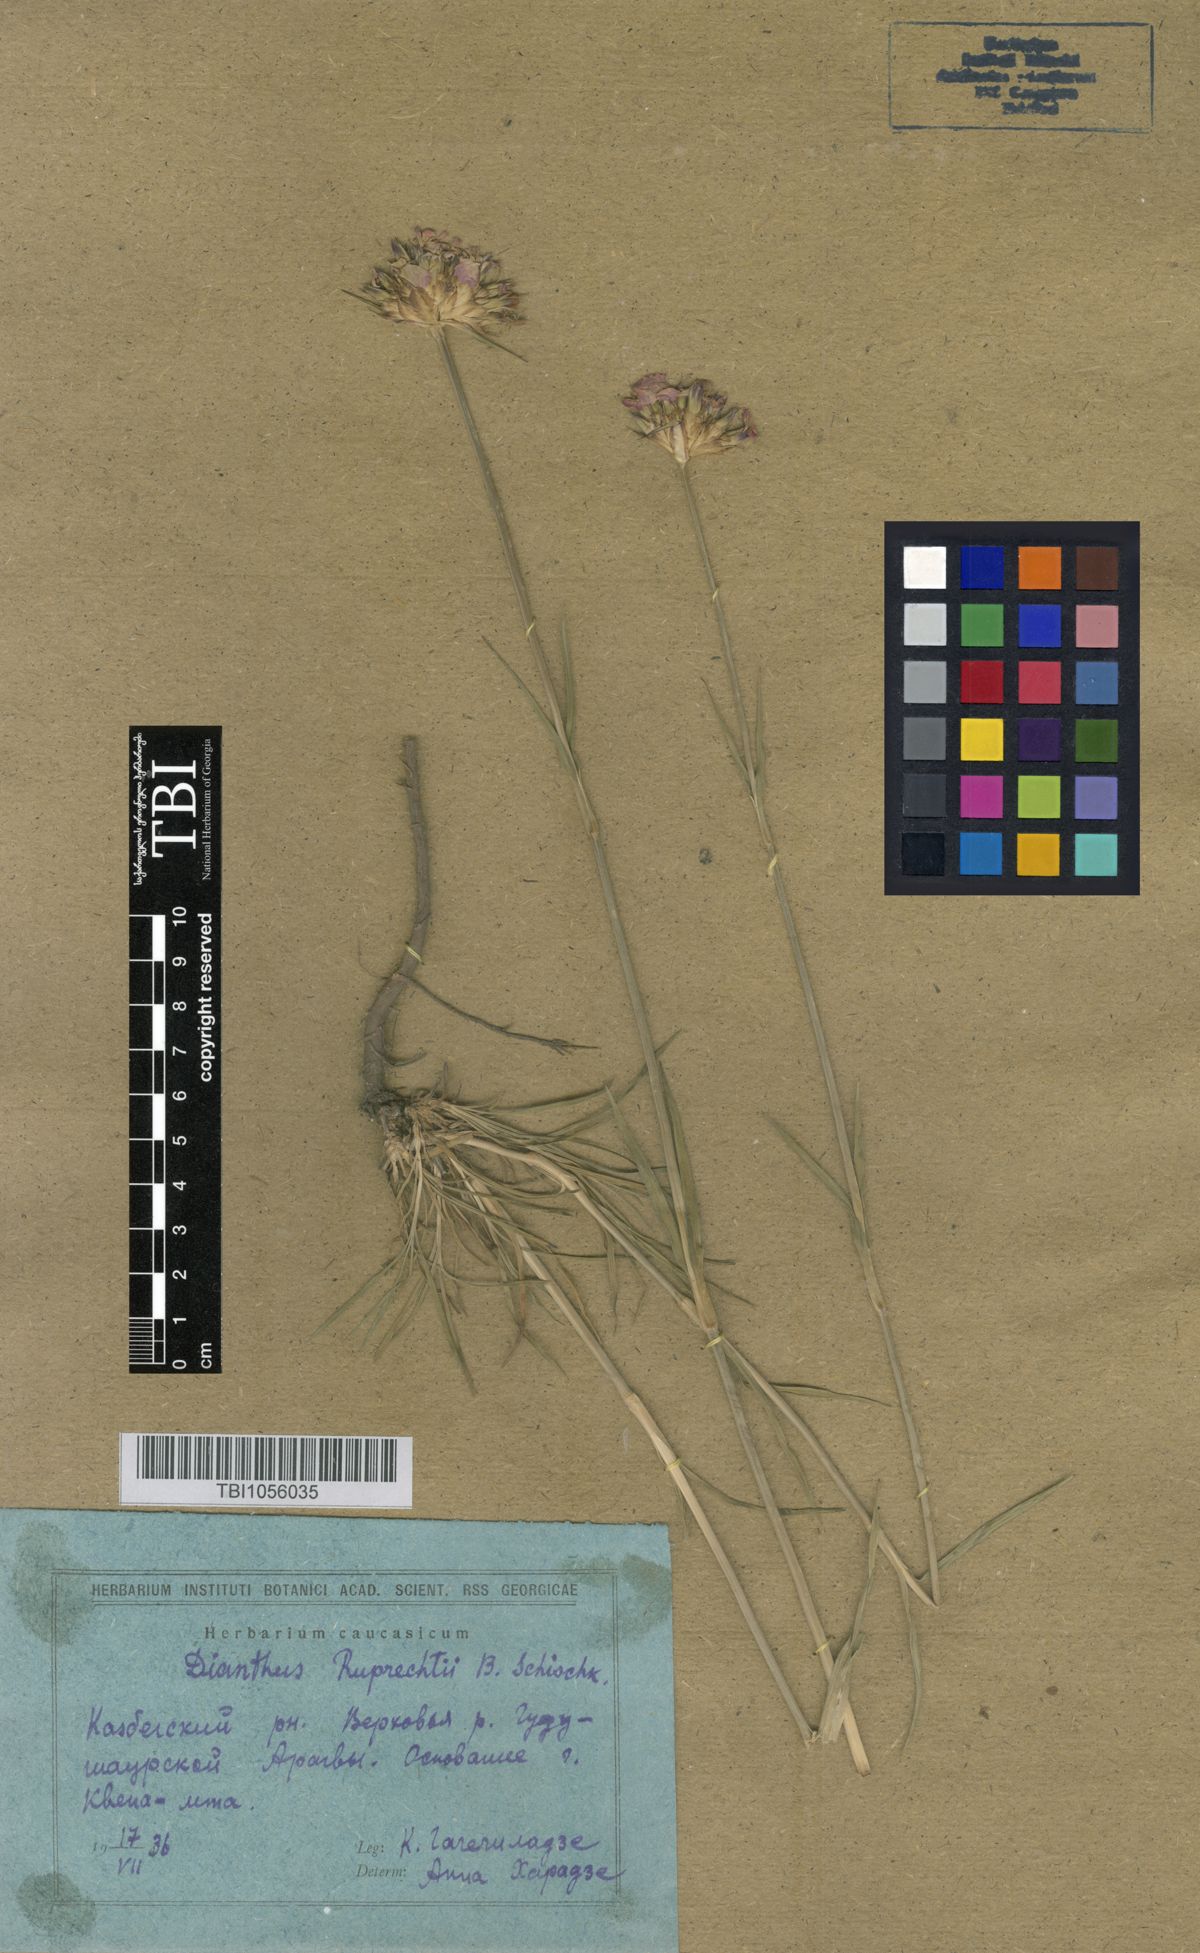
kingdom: Plantae
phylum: Tracheophyta
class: Magnoliopsida
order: Caryophyllales
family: Caryophyllaceae
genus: Dianthus
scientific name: Dianthus ruprechtii
